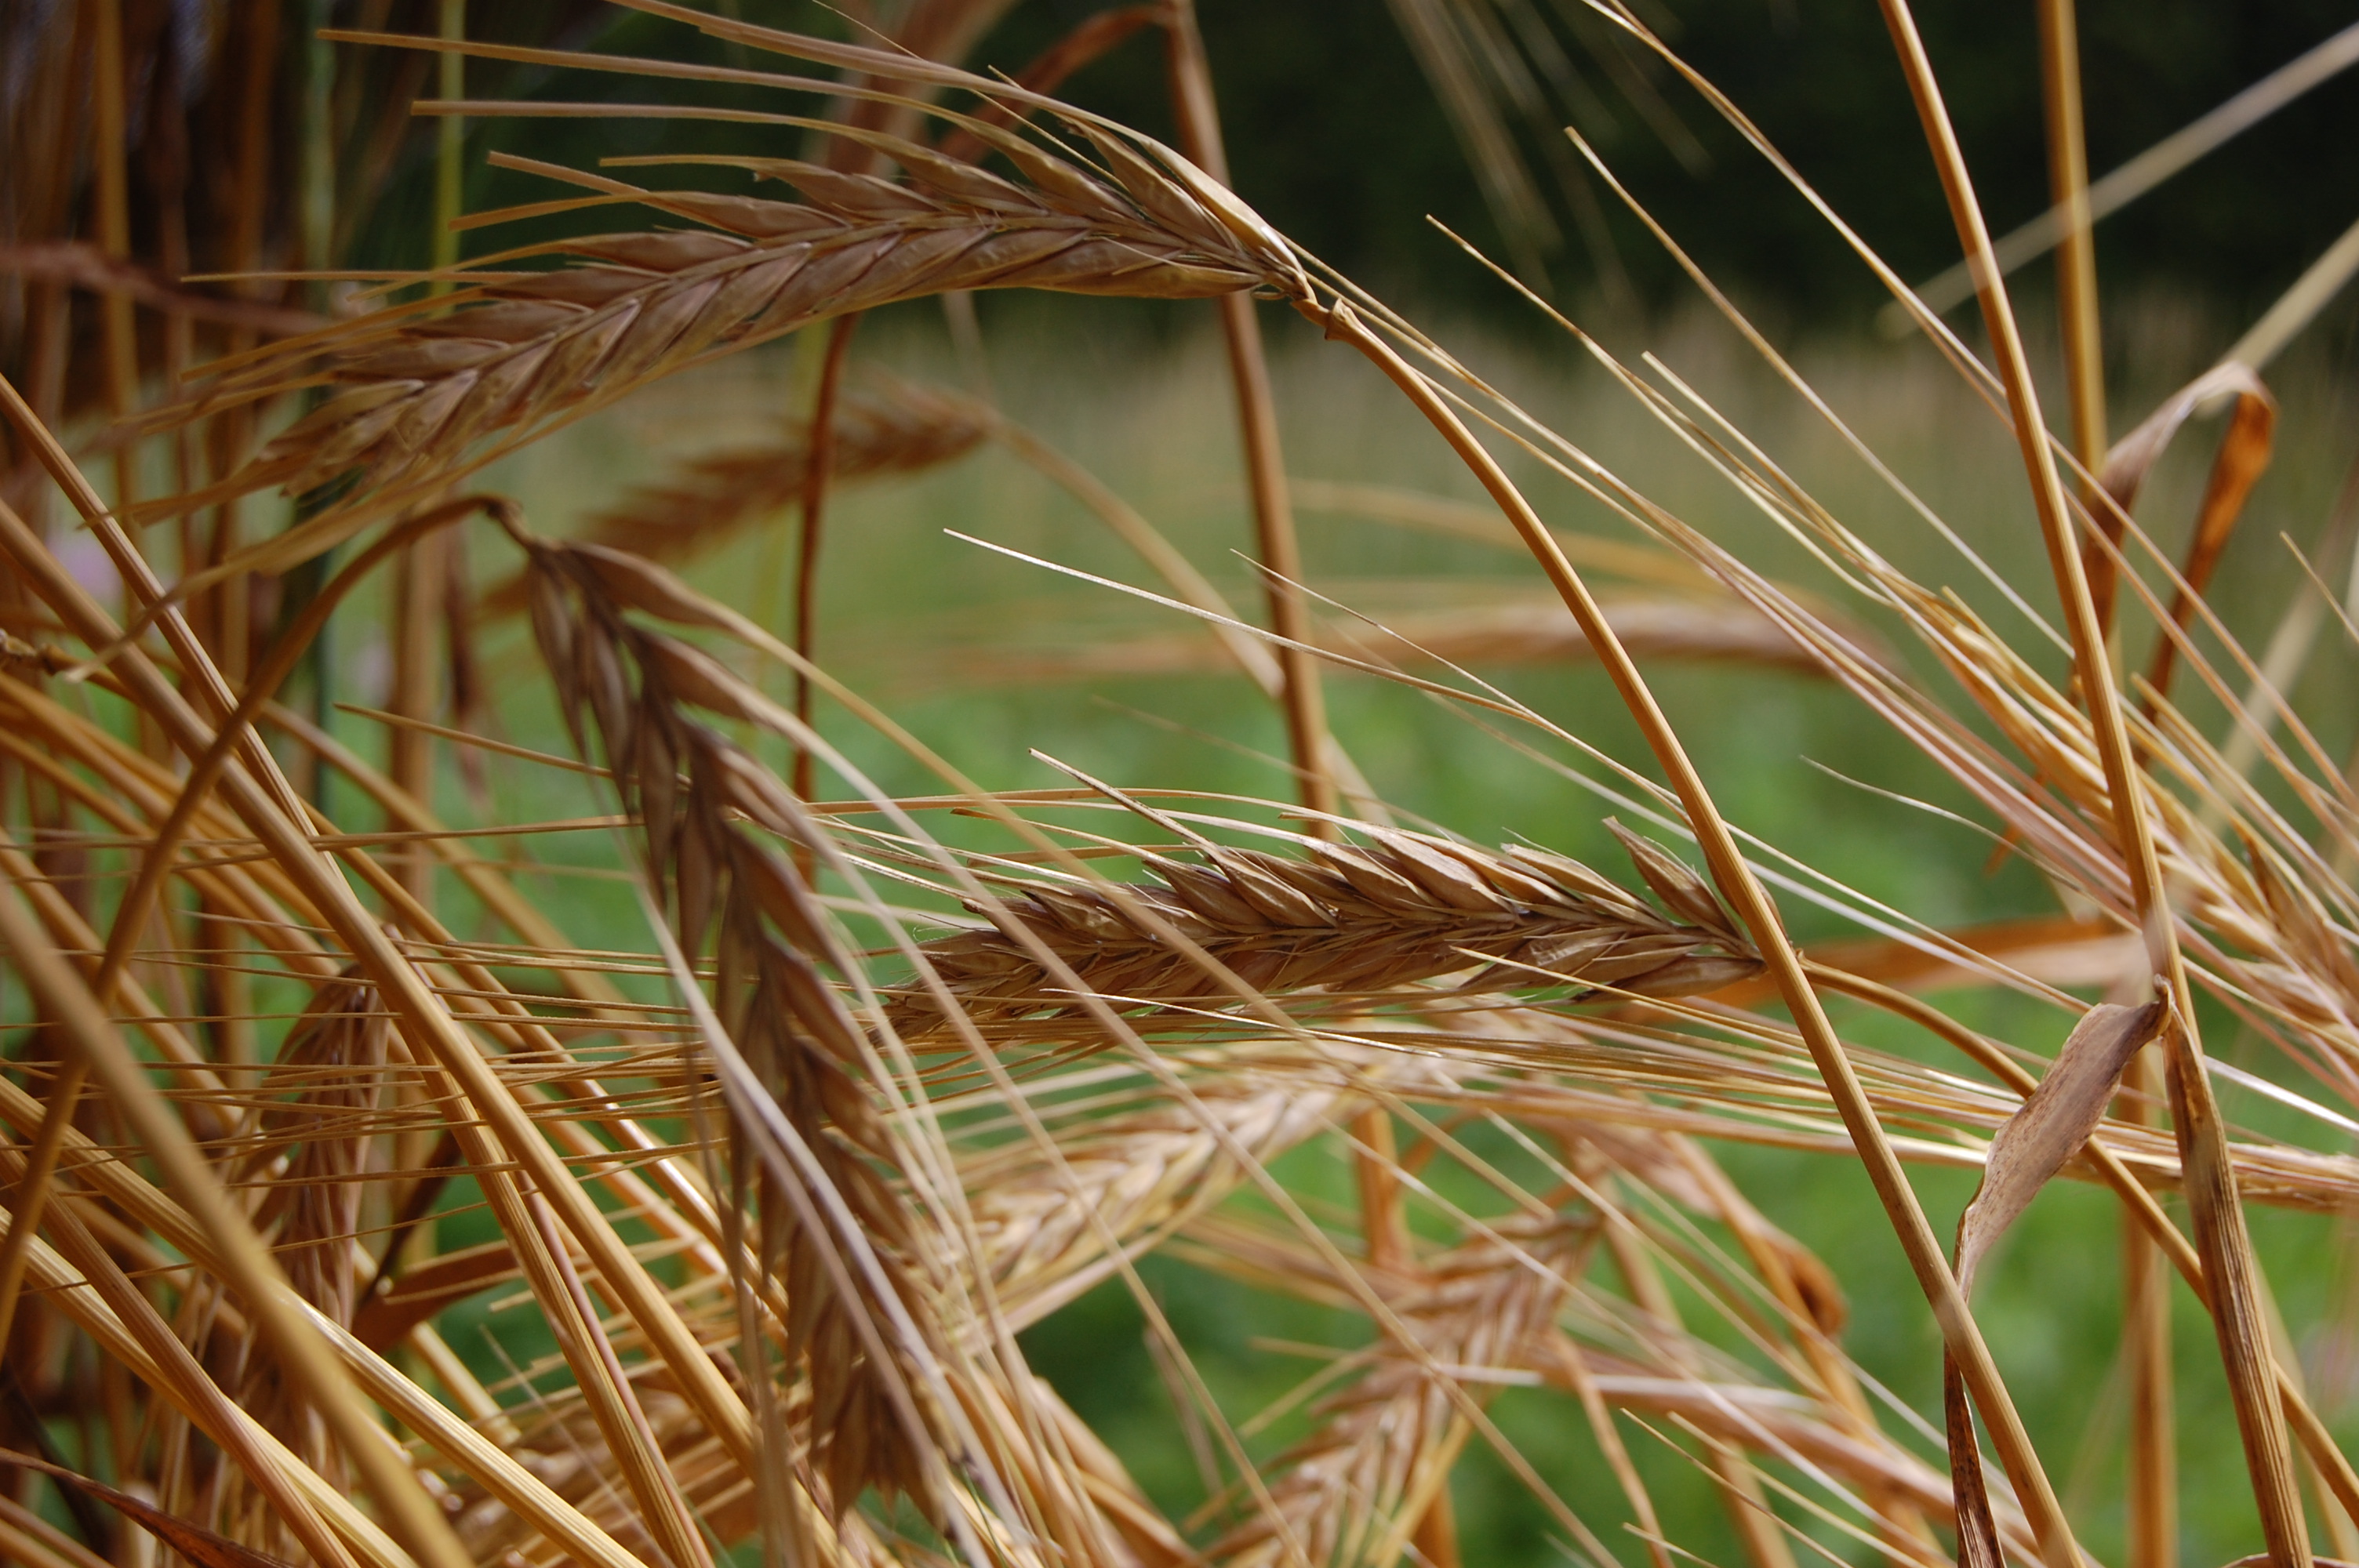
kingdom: Plantae
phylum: Tracheophyta
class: Liliopsida
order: Poales
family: Poaceae
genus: Hordeum
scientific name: Hordeum vulgare
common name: Common barley
